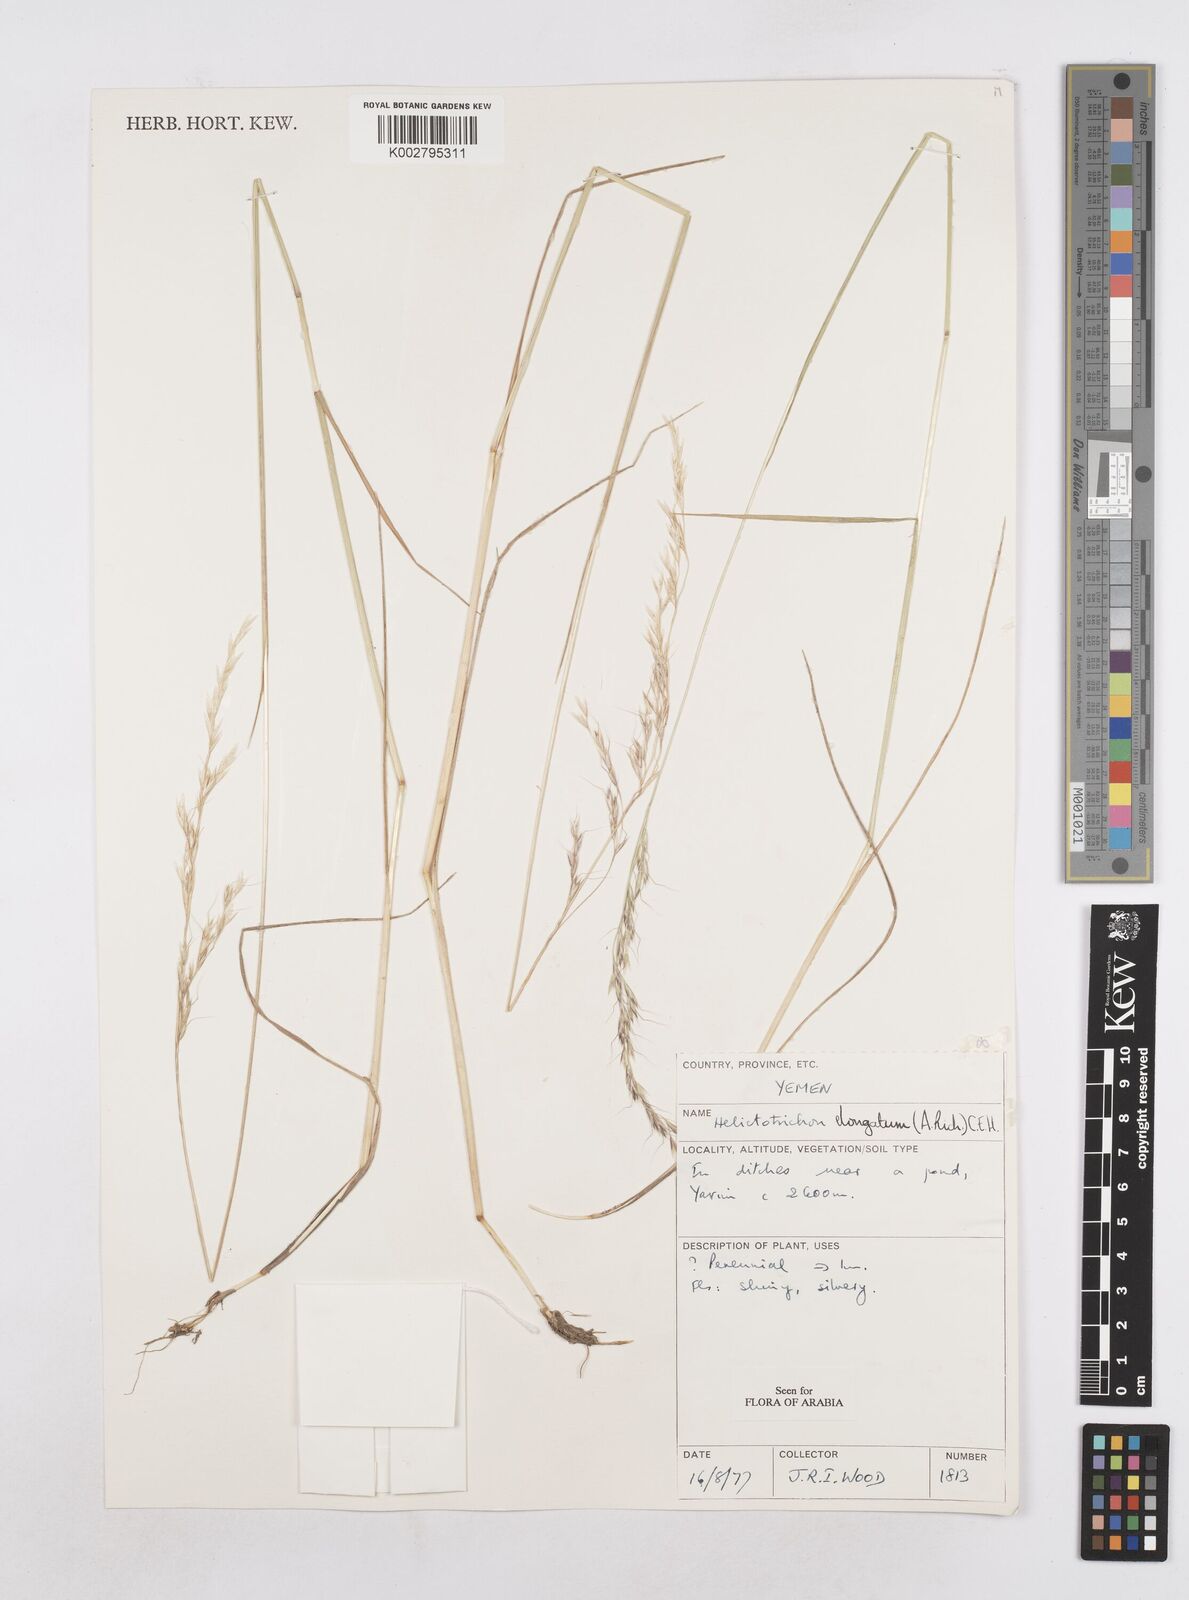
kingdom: Plantae
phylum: Tracheophyta
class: Liliopsida
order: Poales
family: Poaceae
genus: Trisetopsis
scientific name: Trisetopsis elongata
